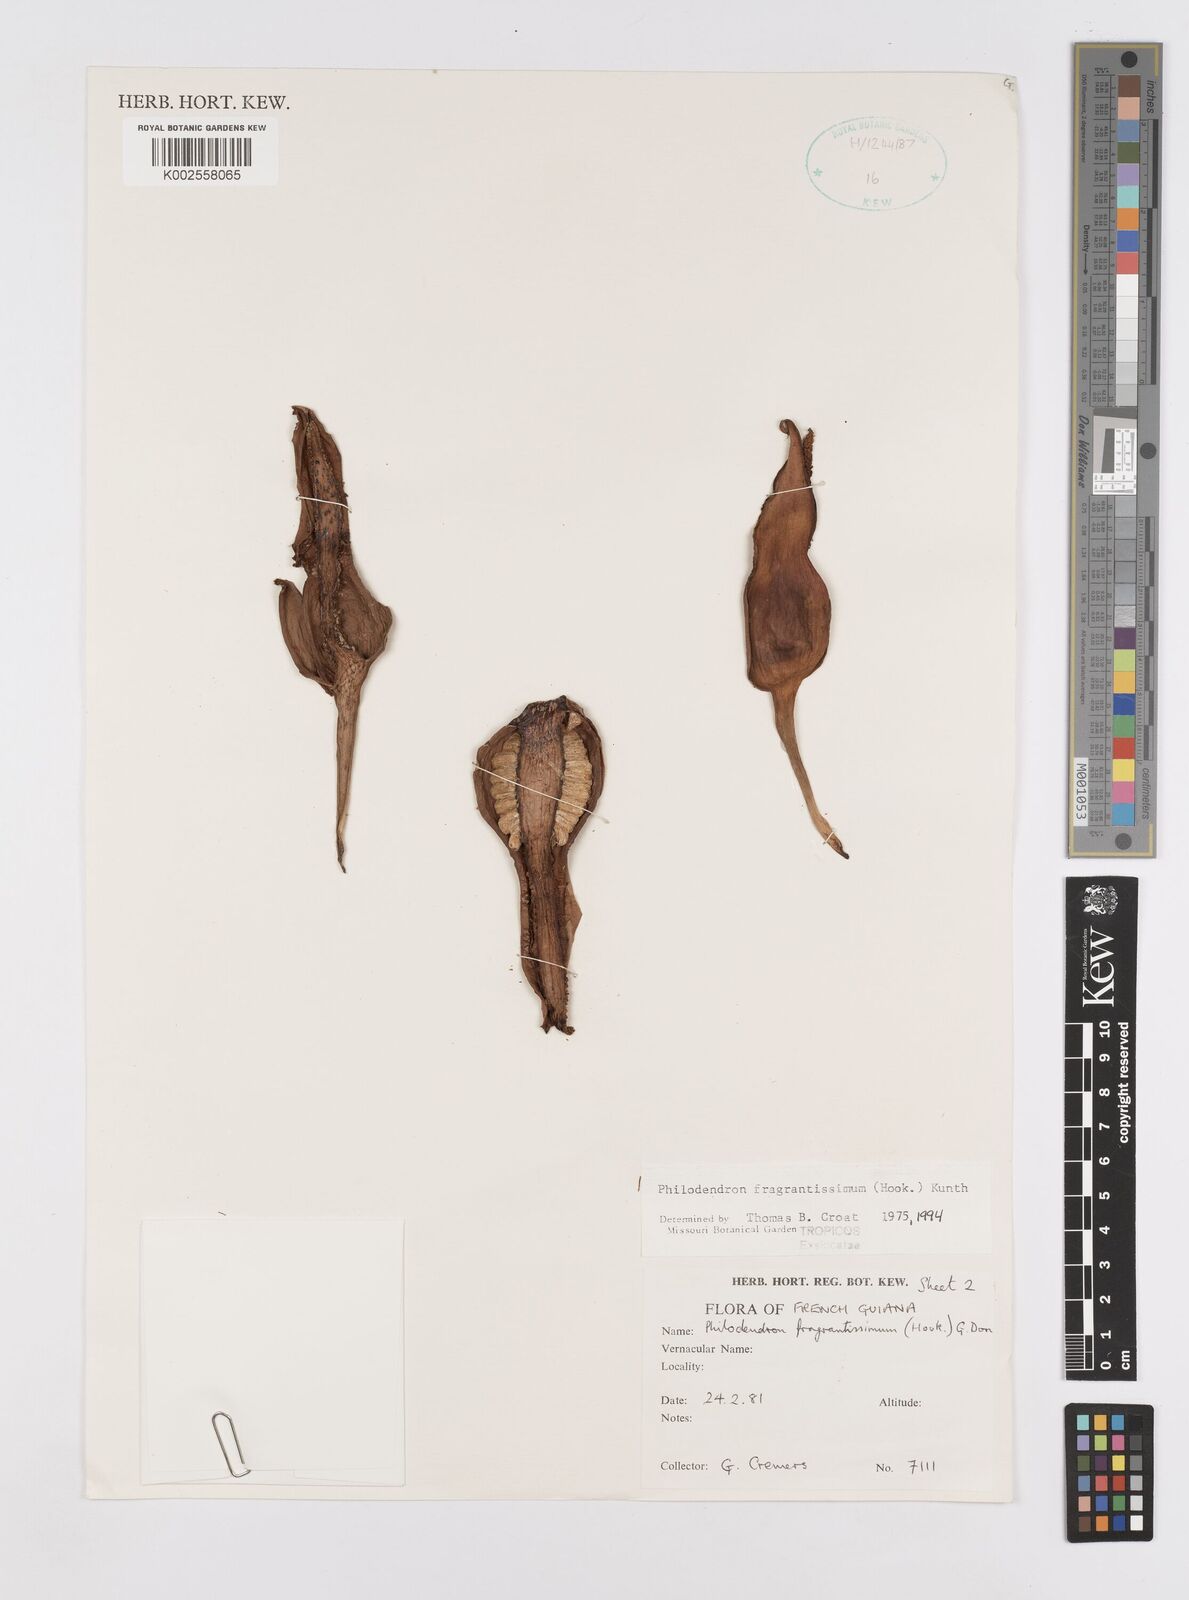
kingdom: Plantae
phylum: Tracheophyta
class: Liliopsida
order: Alismatales
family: Araceae
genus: Philodendron
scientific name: Philodendron fragrantissimum
